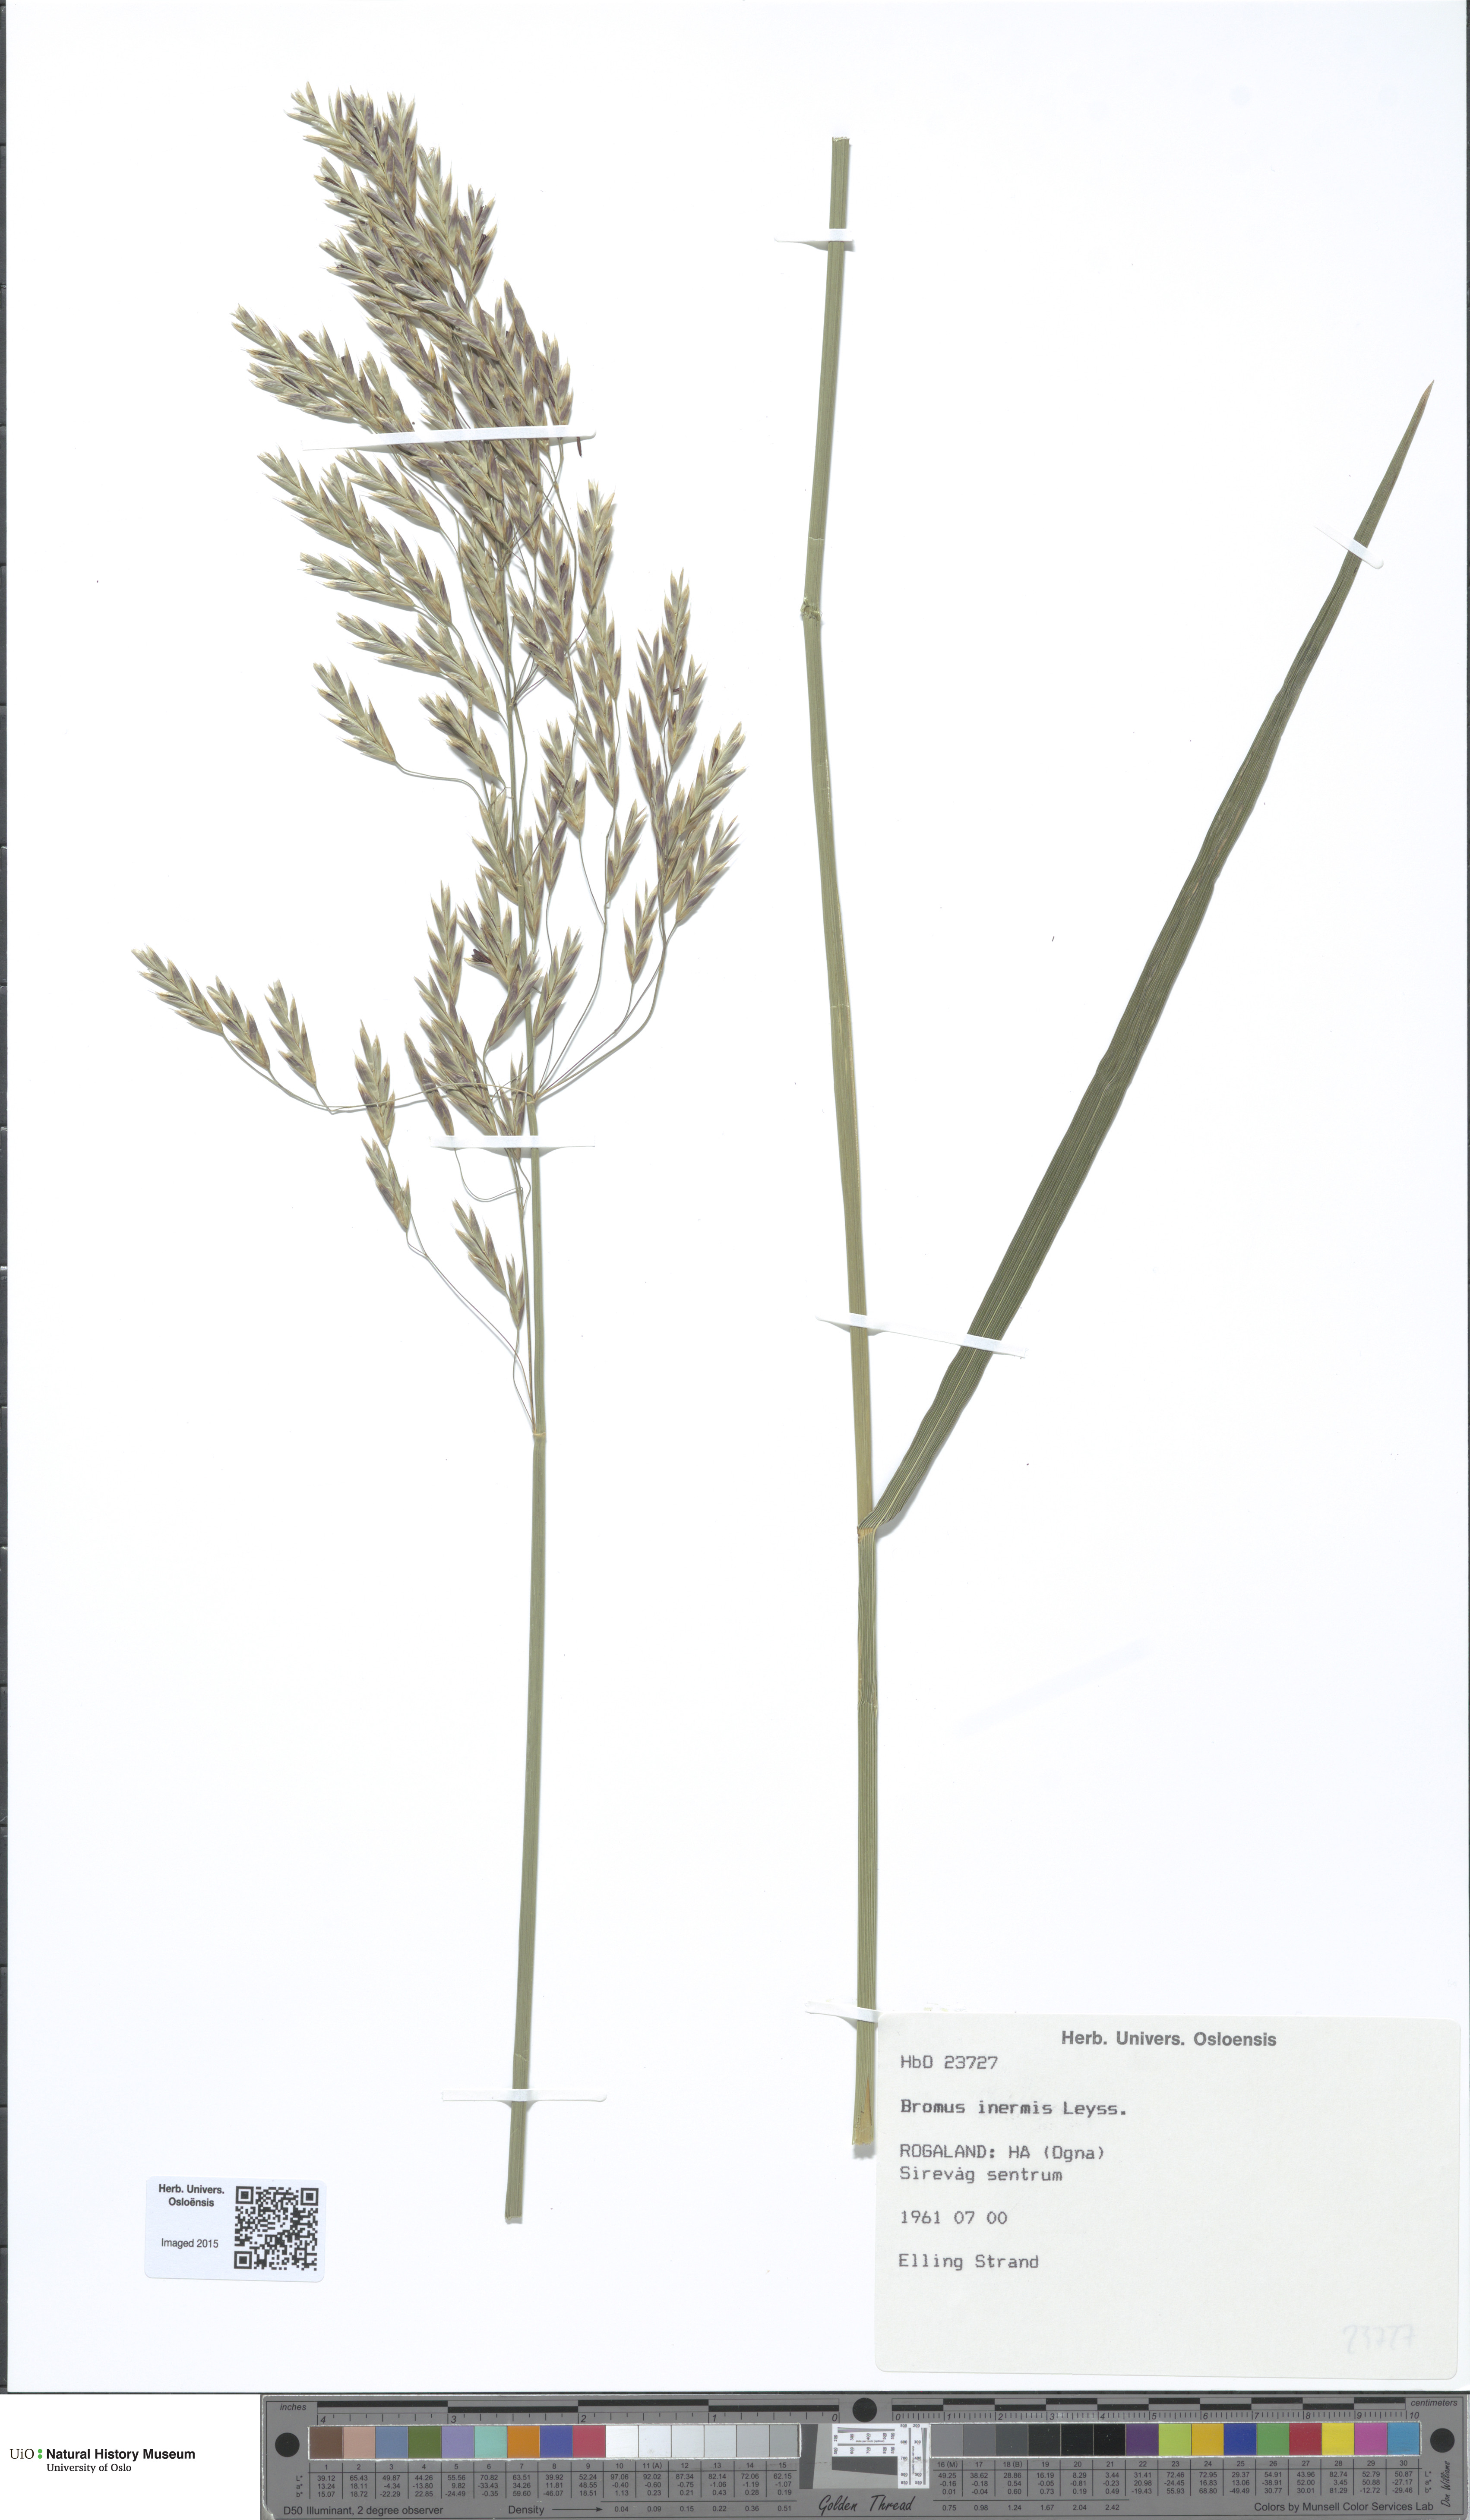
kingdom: Plantae
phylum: Tracheophyta
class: Liliopsida
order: Poales
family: Poaceae
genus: Bromus
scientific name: Bromus inermis
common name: Smooth brome
